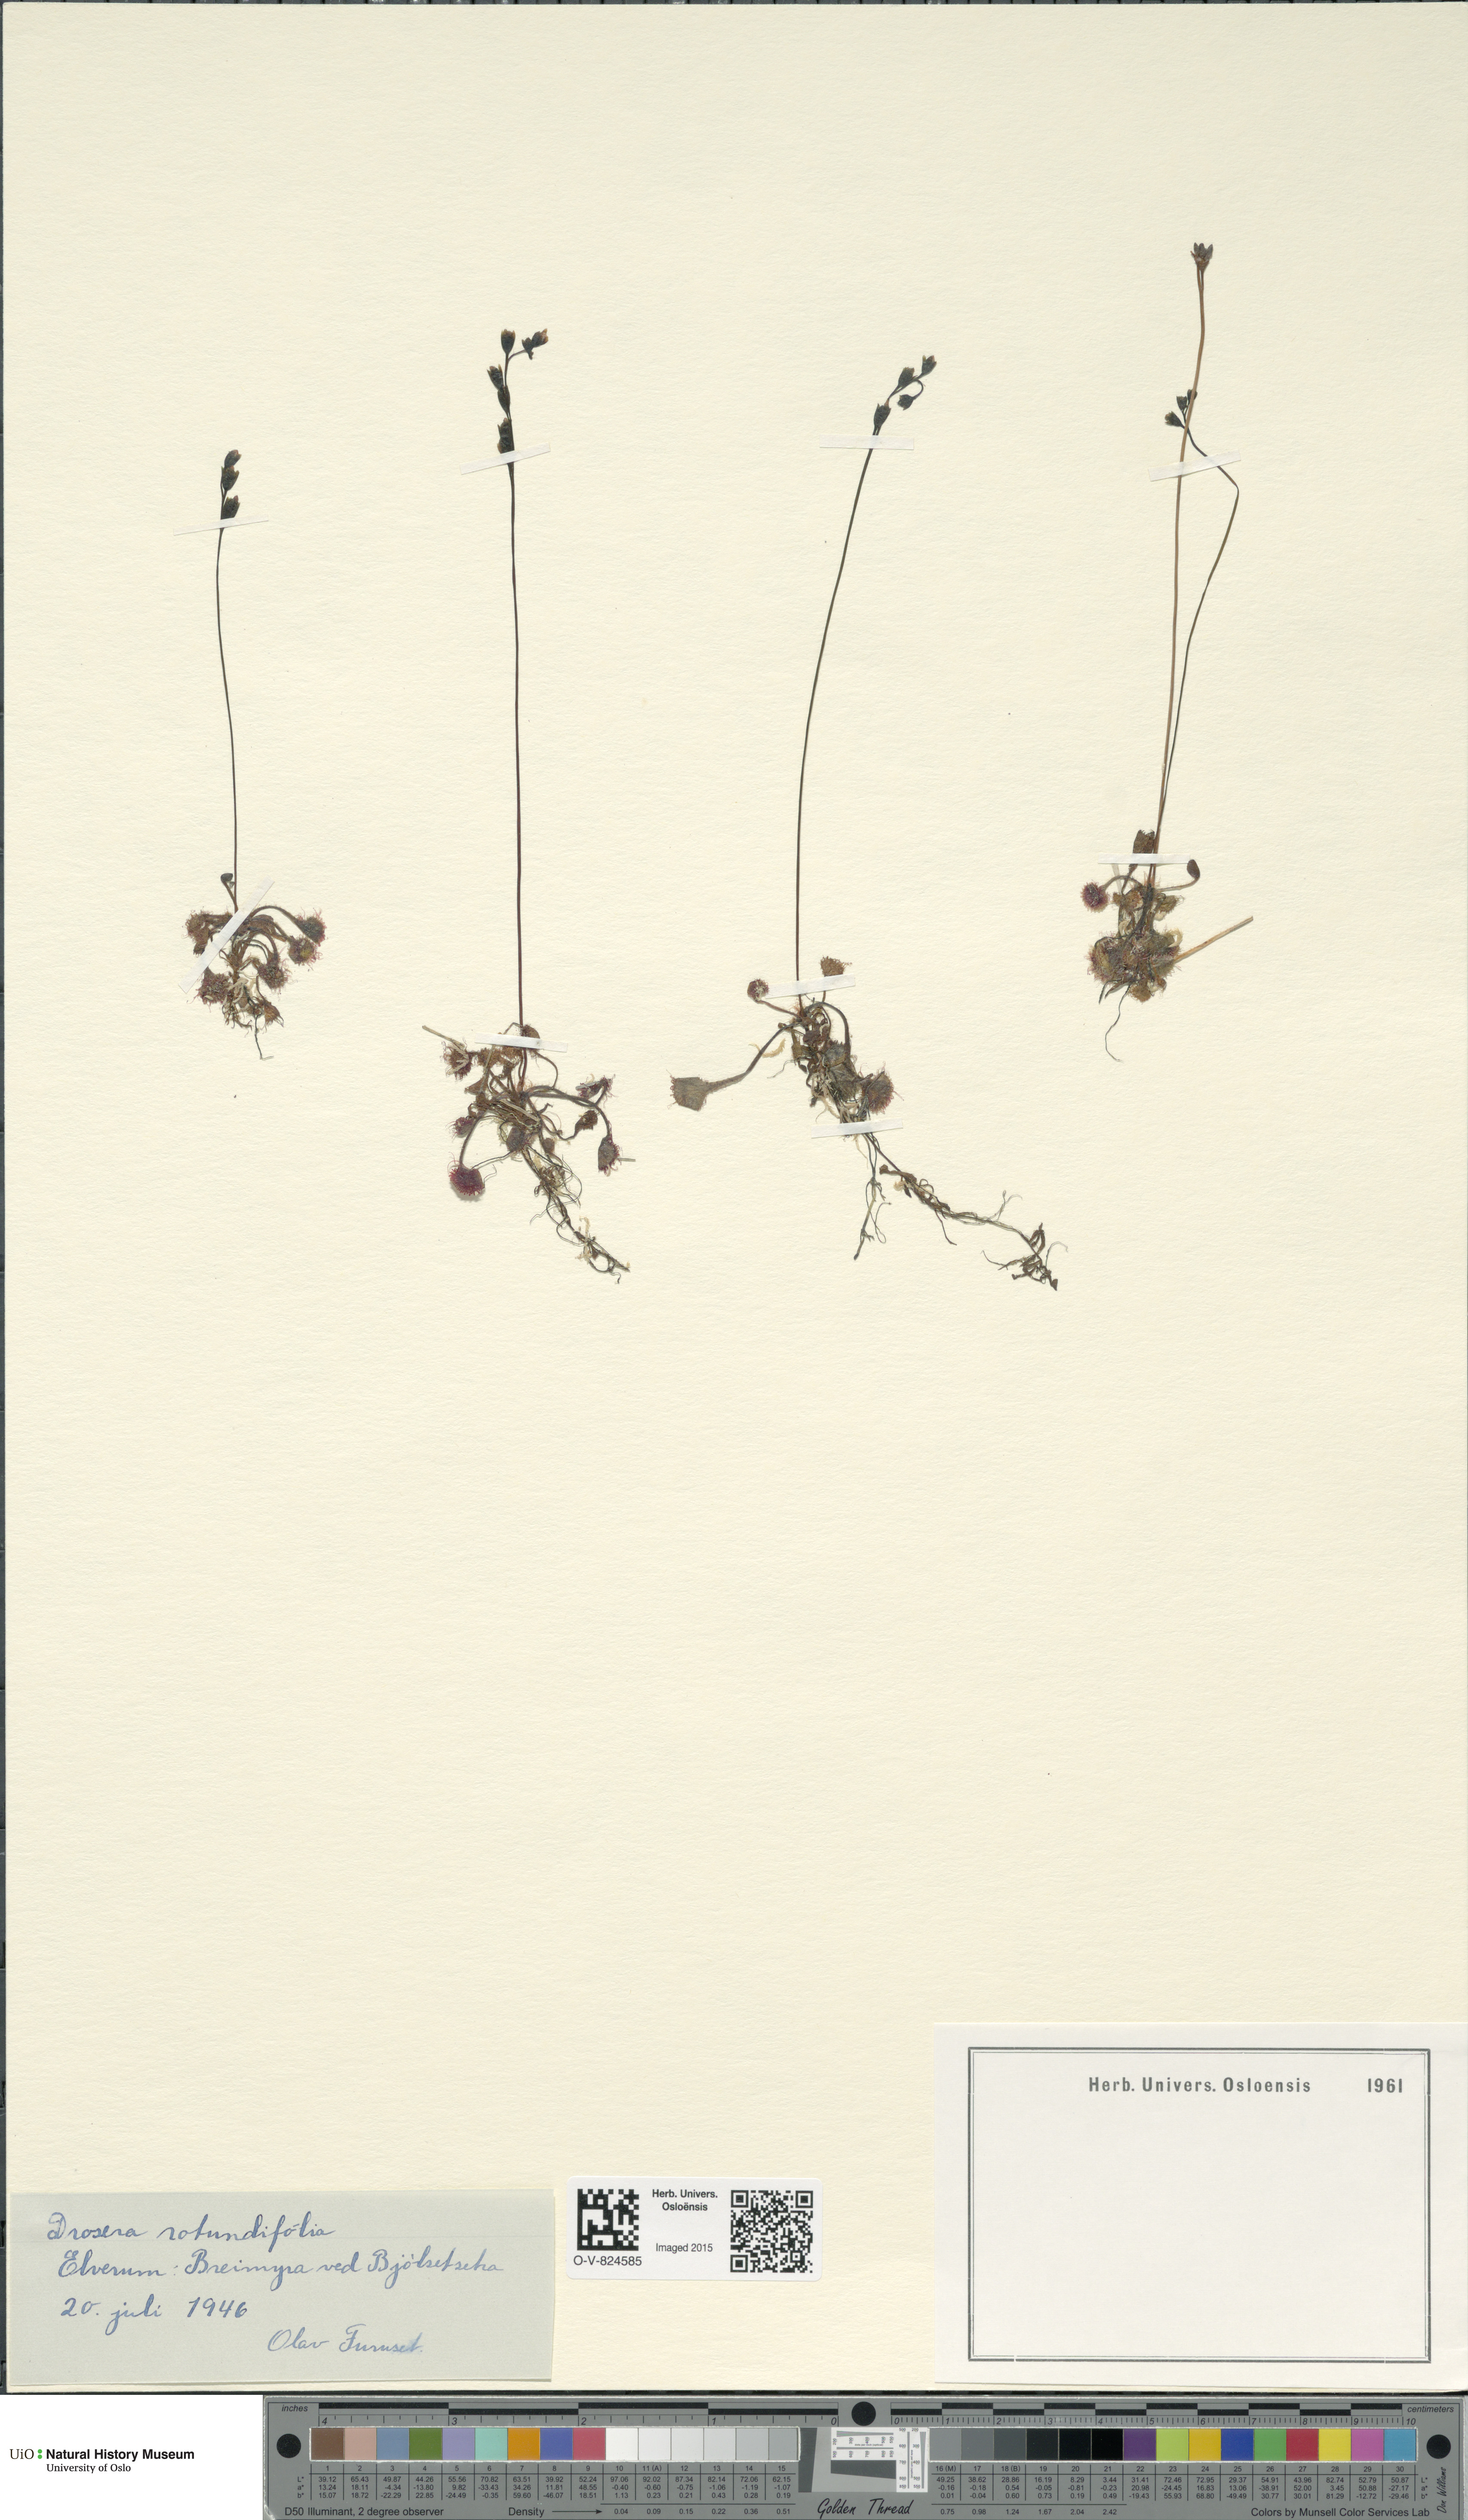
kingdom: Plantae
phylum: Tracheophyta
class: Magnoliopsida
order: Caryophyllales
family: Droseraceae
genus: Drosera
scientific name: Drosera rotundifolia
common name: Round-leaved sundew
